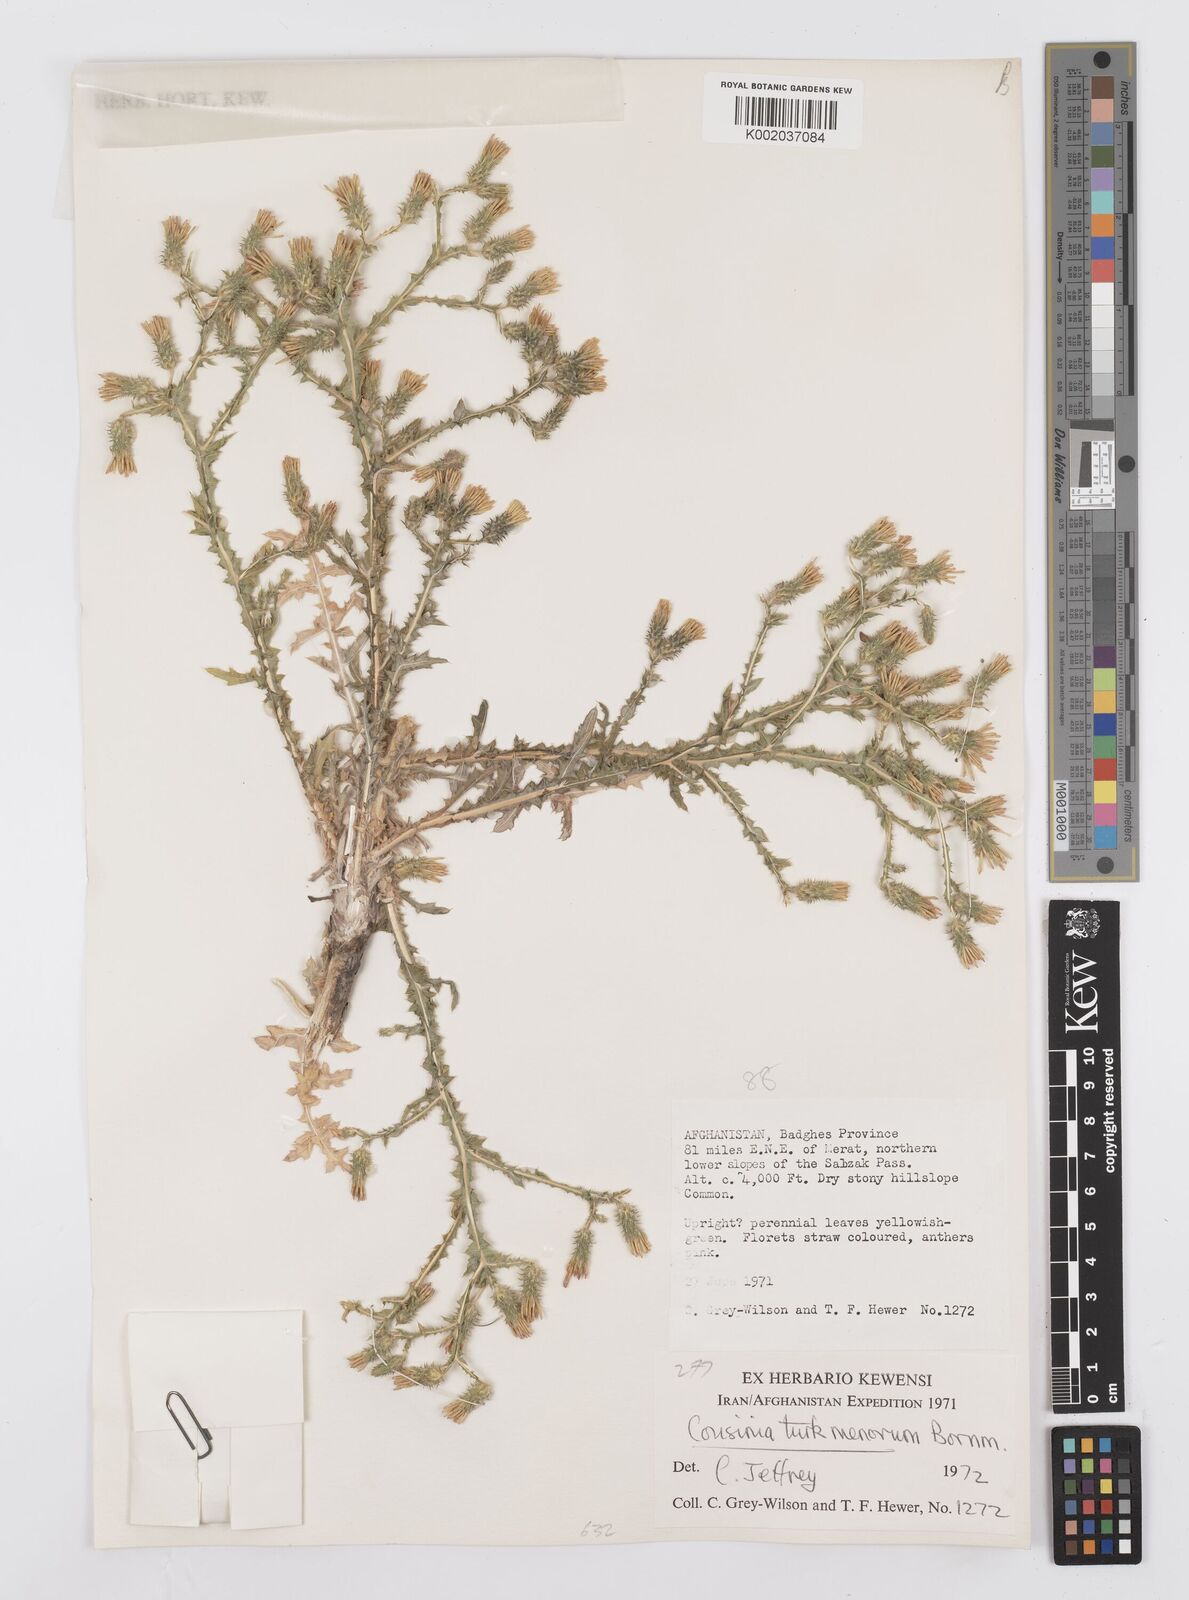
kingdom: Plantae
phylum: Tracheophyta
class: Magnoliopsida
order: Asterales
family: Asteraceae
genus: Cousinia
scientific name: Cousinia turkmenorum
